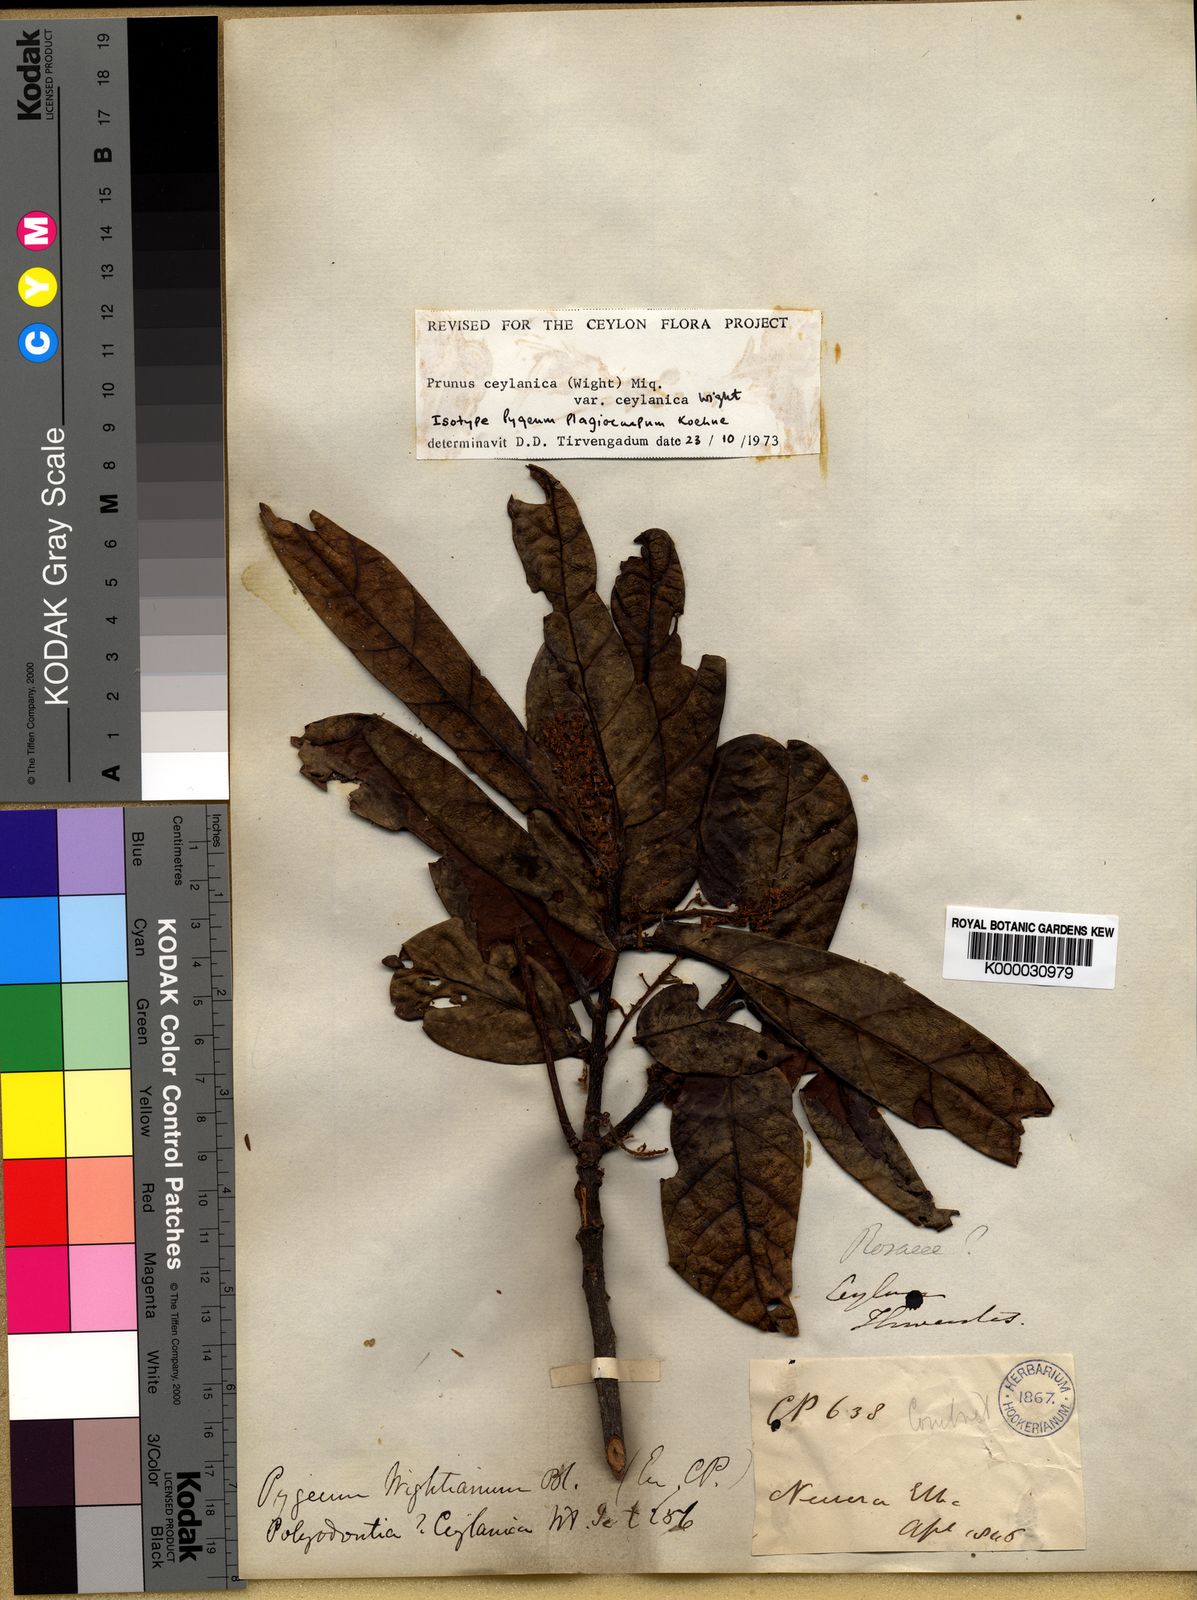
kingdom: Plantae
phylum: Tracheophyta
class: Magnoliopsida
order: Rosales
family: Rosaceae
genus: Prunus
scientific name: Prunus ceylanica
